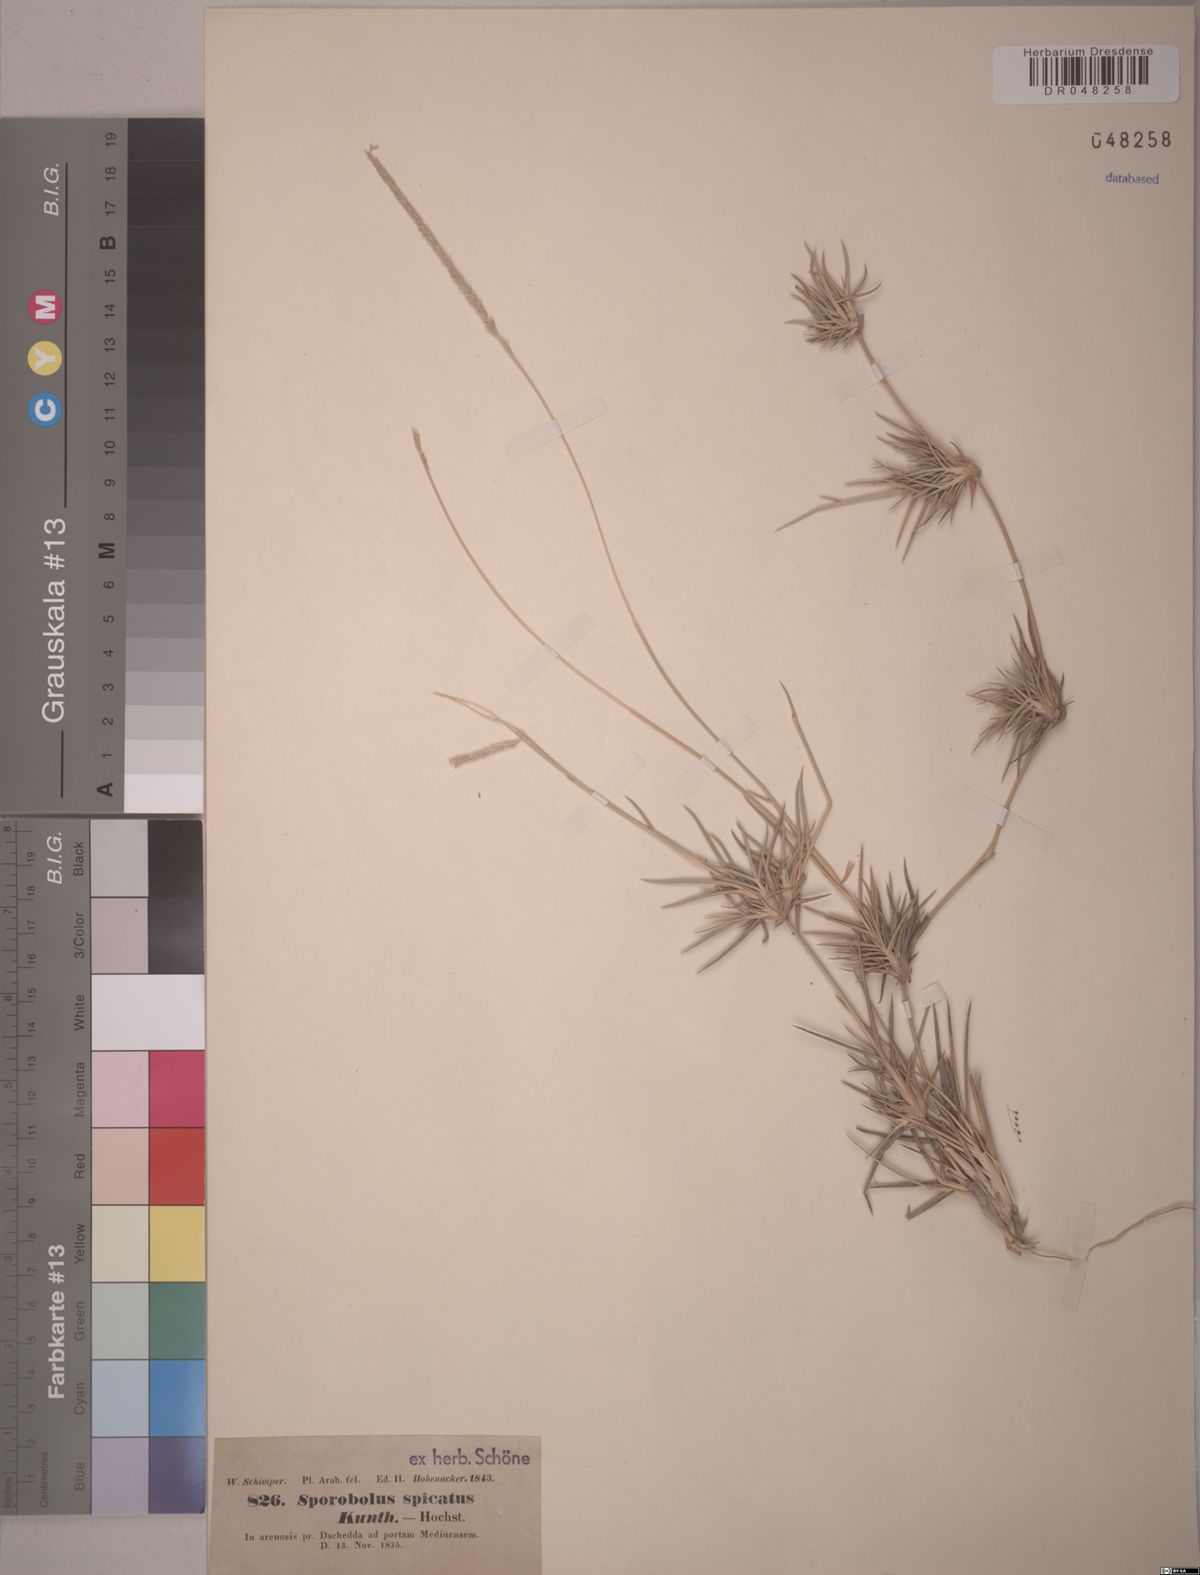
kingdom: Plantae
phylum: Tracheophyta
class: Liliopsida
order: Poales
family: Poaceae
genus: Sporobolus
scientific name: Sporobolus spicatus
